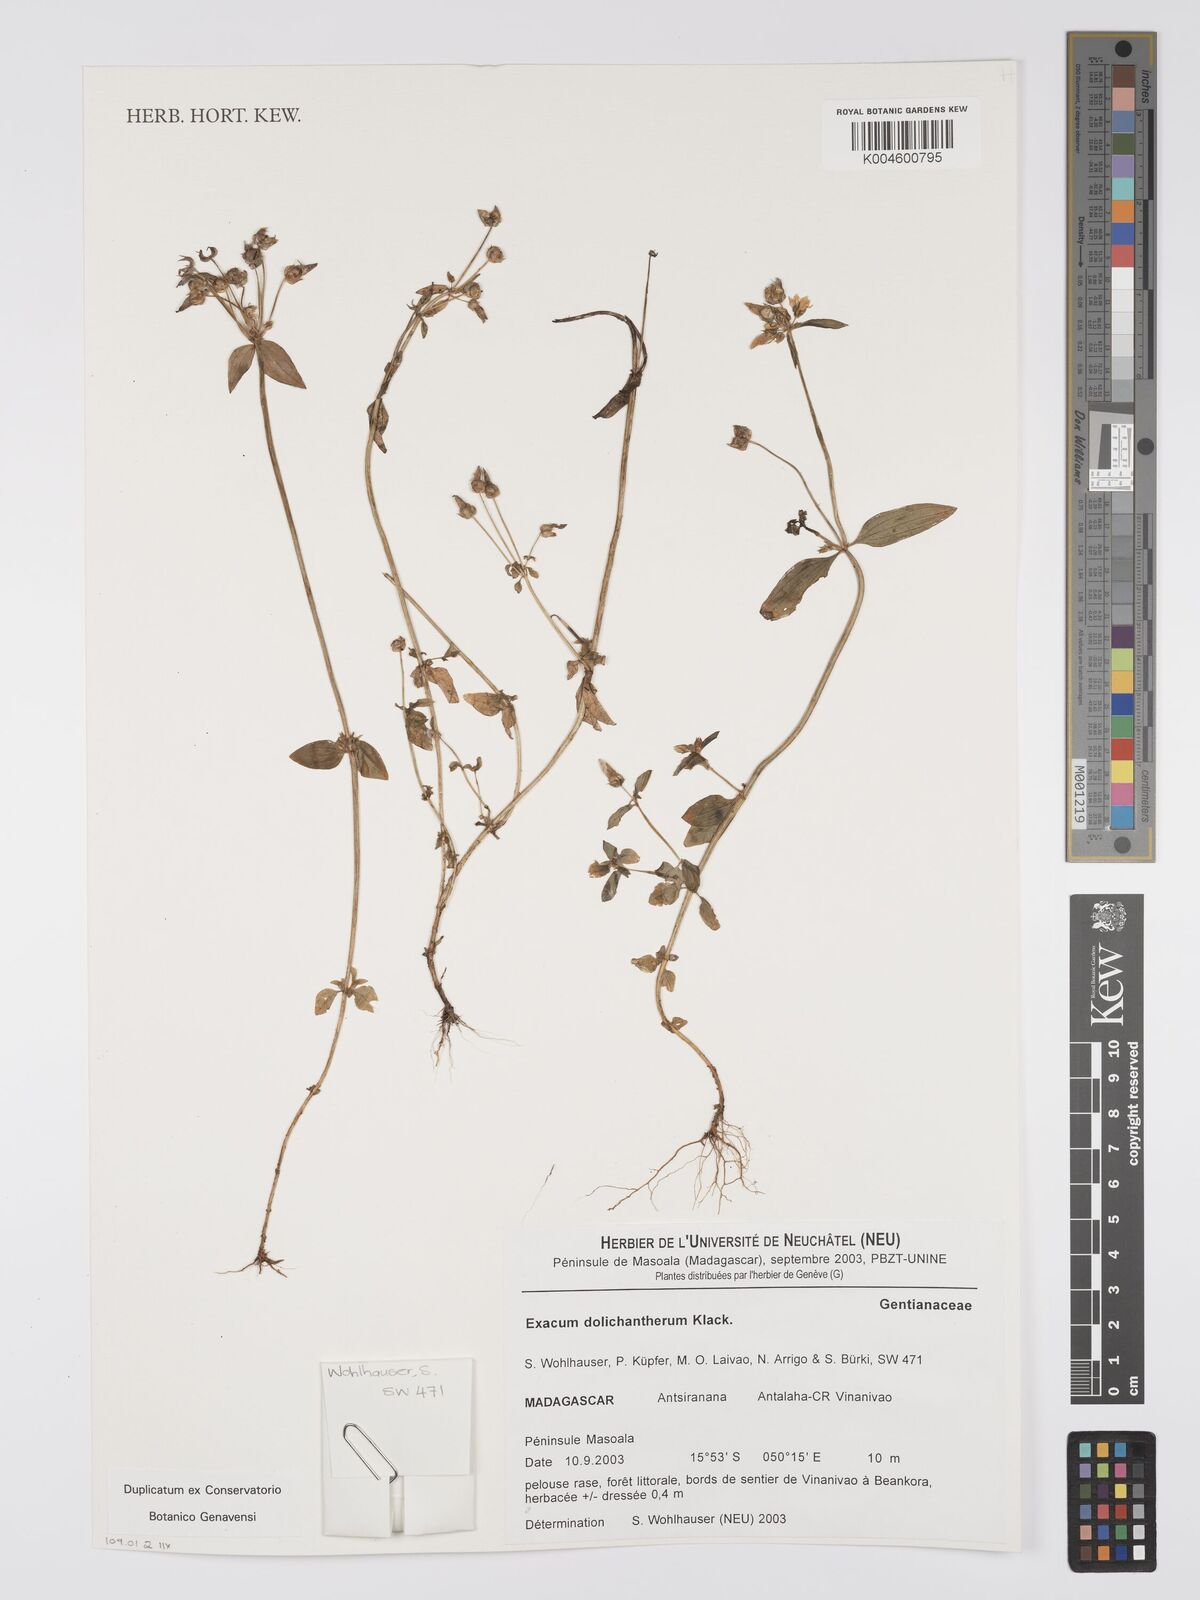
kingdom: Plantae
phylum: Tracheophyta
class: Magnoliopsida
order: Gentianales
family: Gentianaceae
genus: Exacum
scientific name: Exacum dolichantherum
